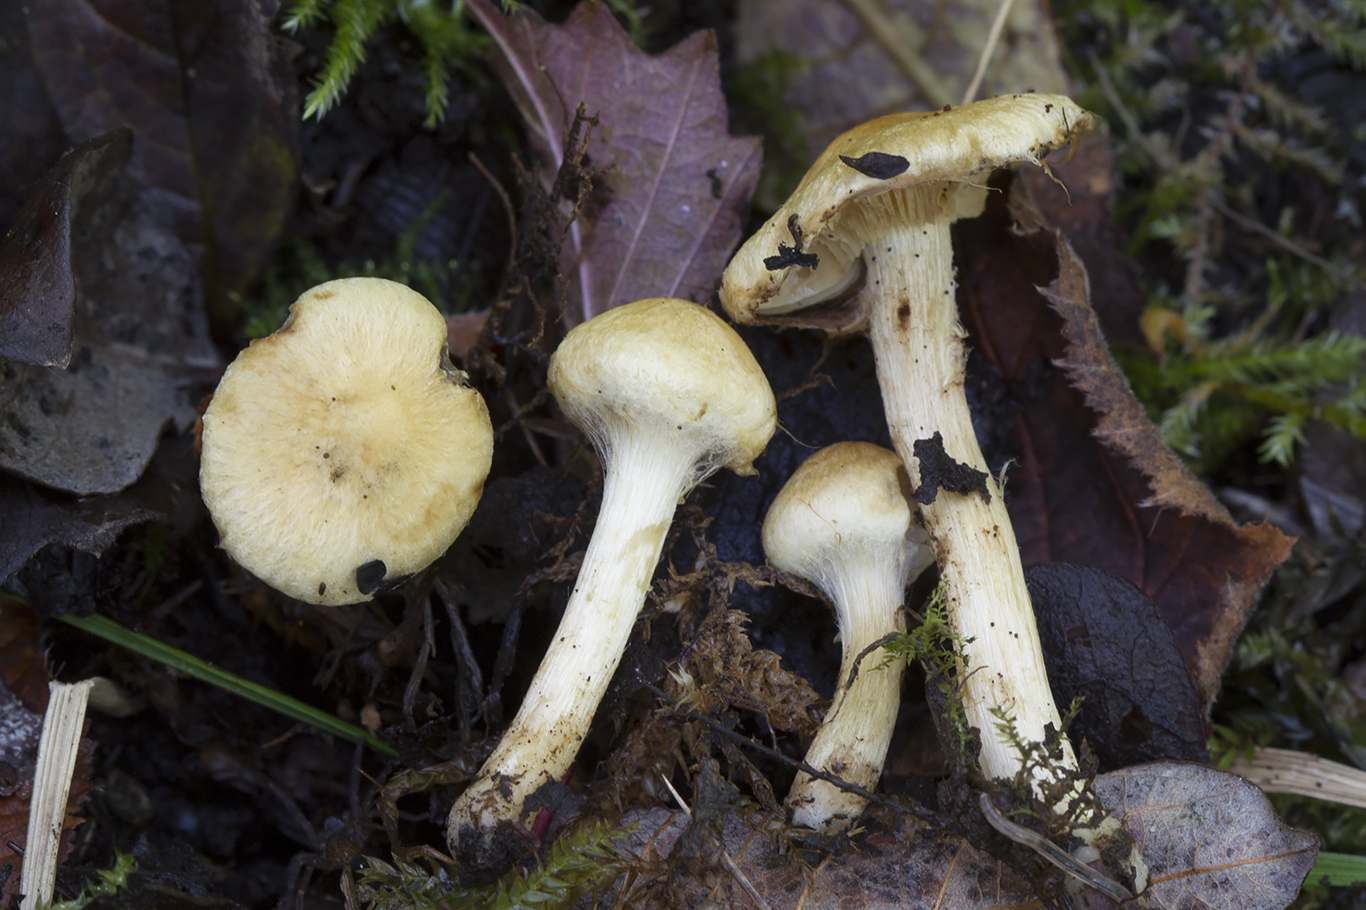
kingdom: Fungi
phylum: Basidiomycota
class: Agaricomycetes
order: Agaricales
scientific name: Agaricales
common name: champignonordenen
